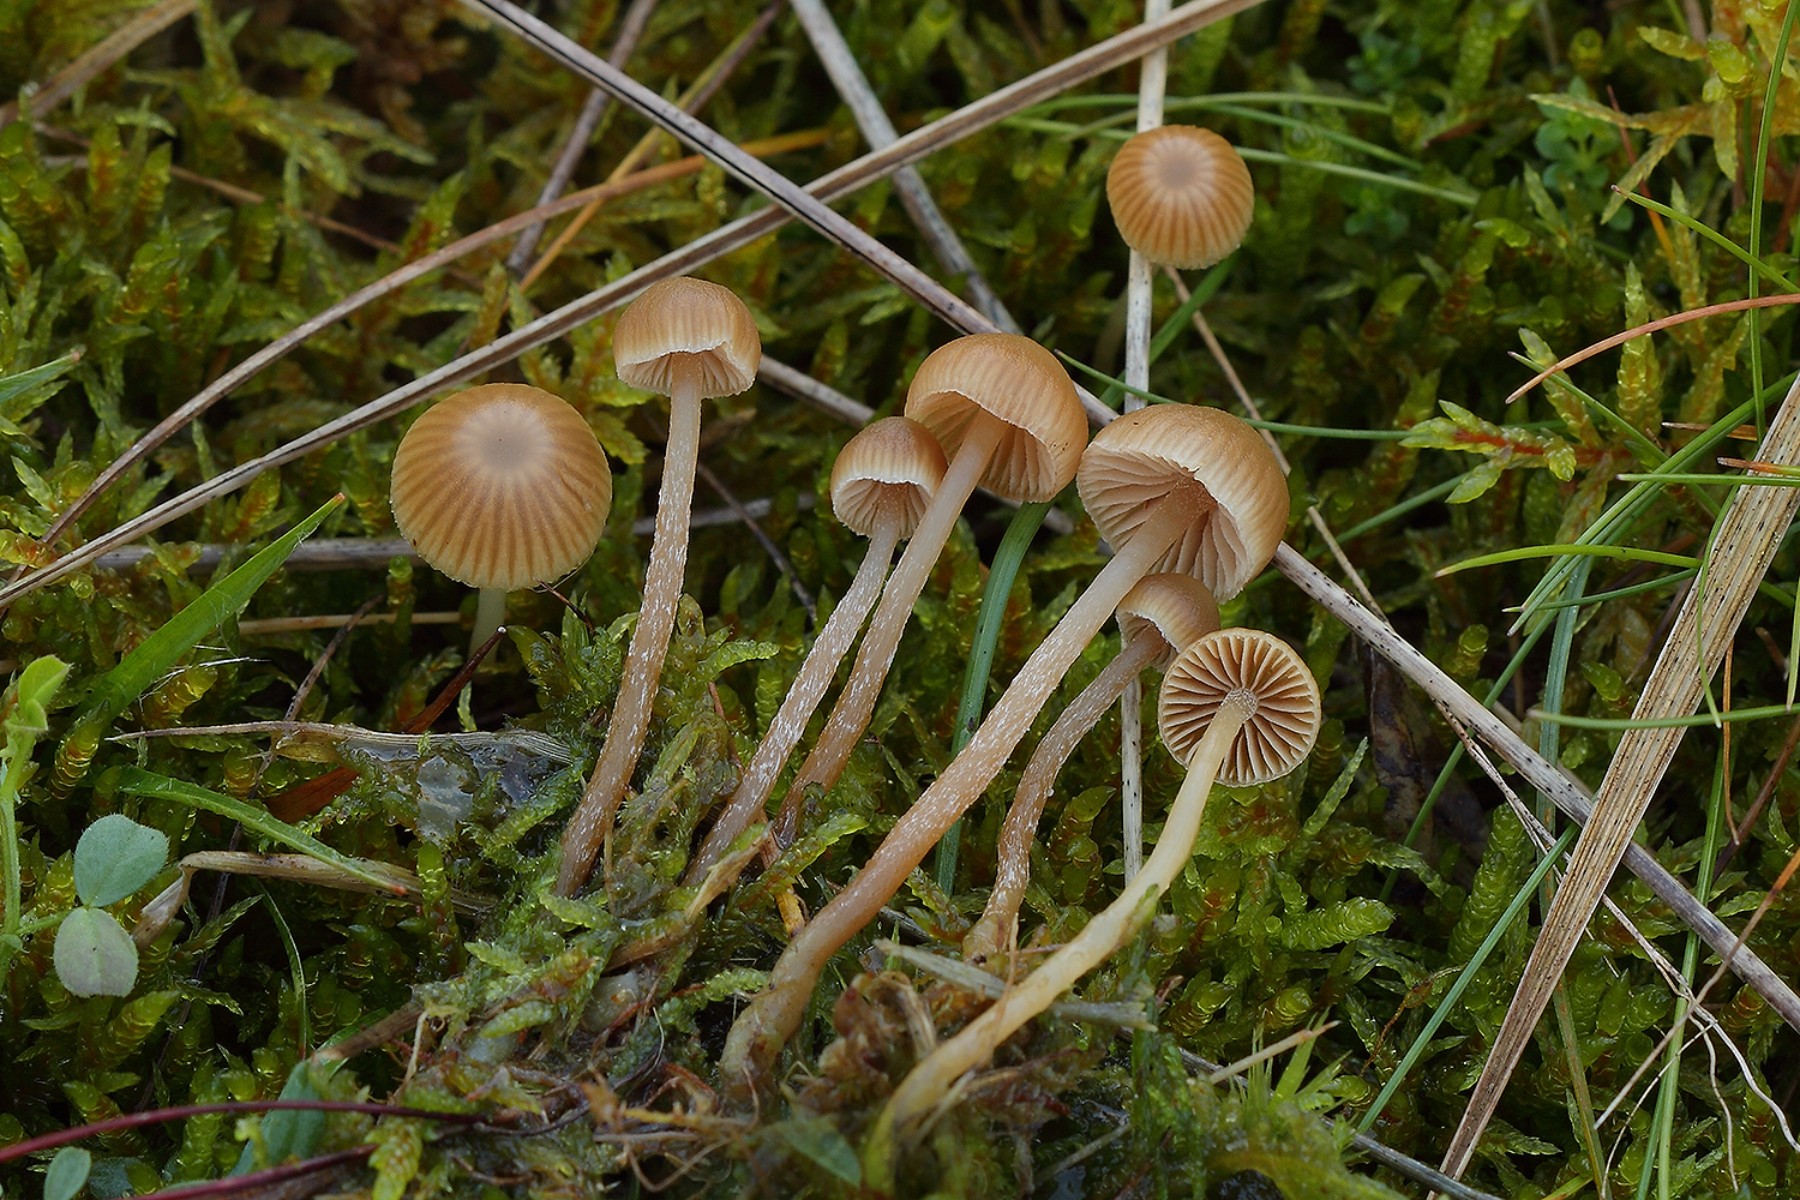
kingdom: Fungi
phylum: Basidiomycota
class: Agaricomycetes
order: Agaricales
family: Hymenogastraceae
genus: Galerina
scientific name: Galerina mniophila
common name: olivengul hjelmhat
